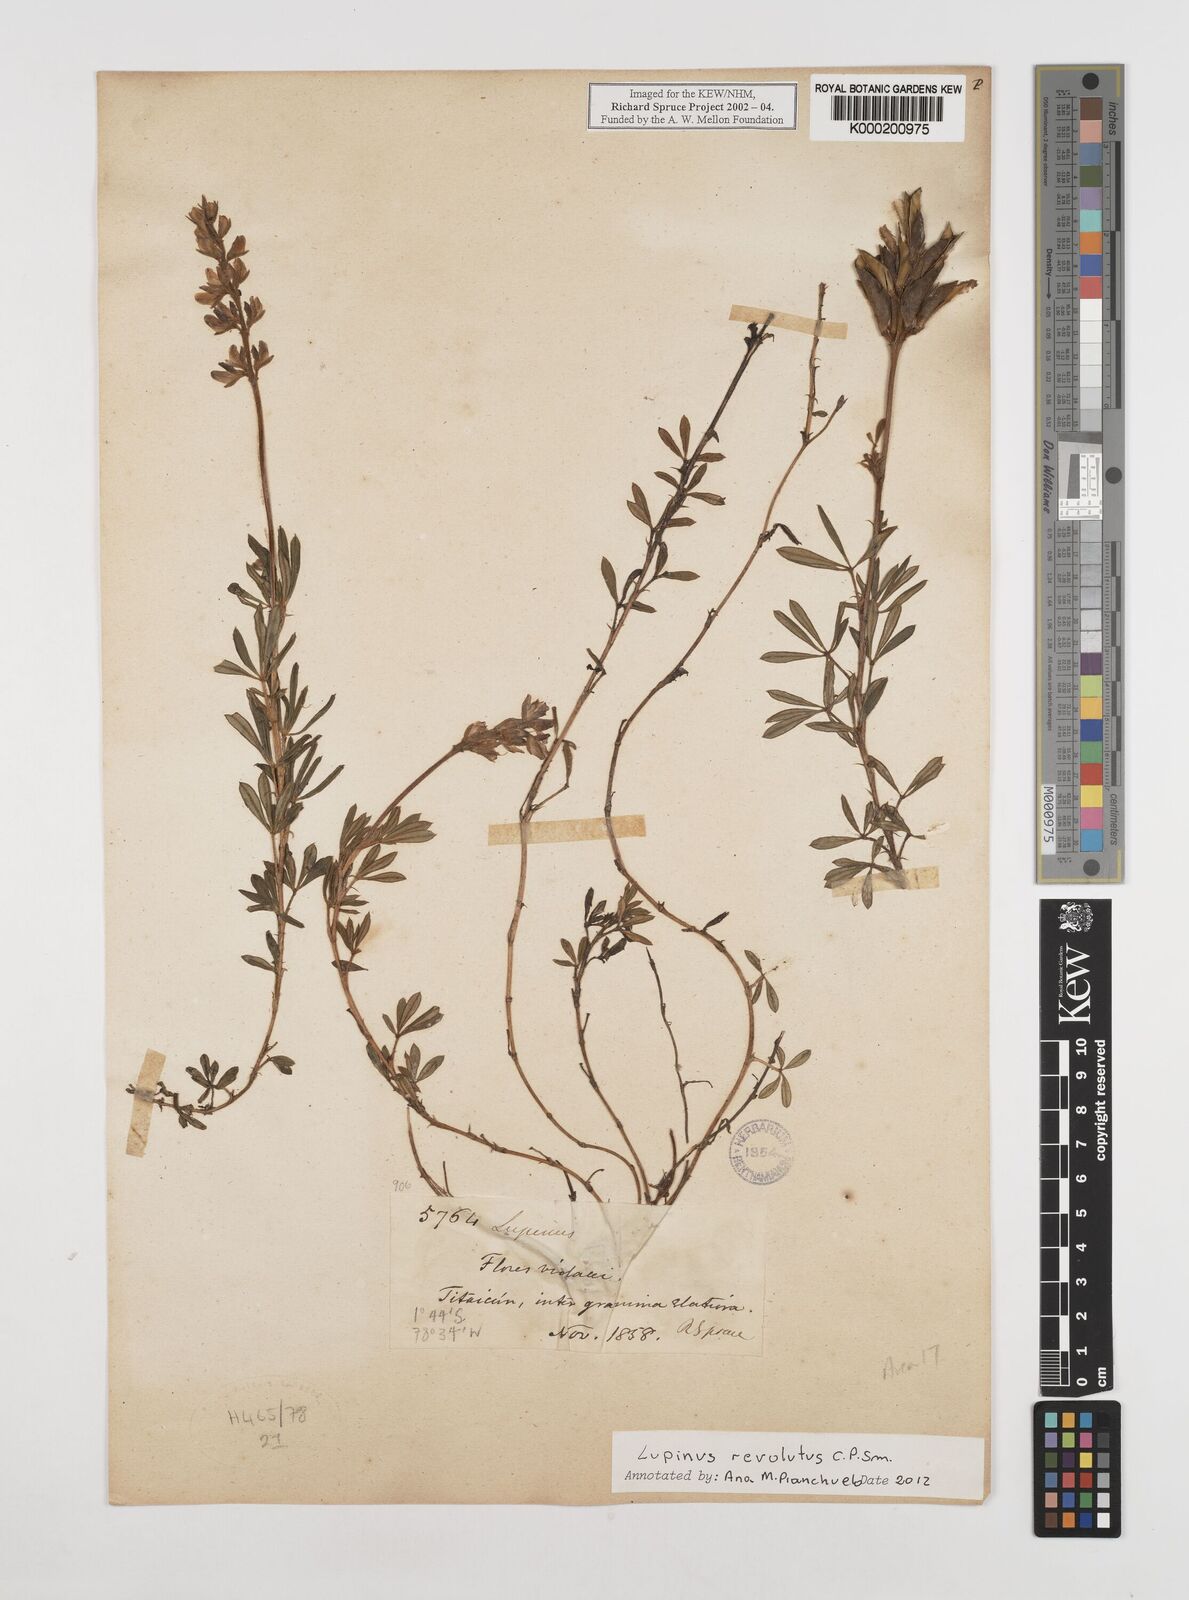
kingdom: Plantae
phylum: Tracheophyta
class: Magnoliopsida
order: Fabales
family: Fabaceae
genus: Lupinus
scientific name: Lupinus revolutus
